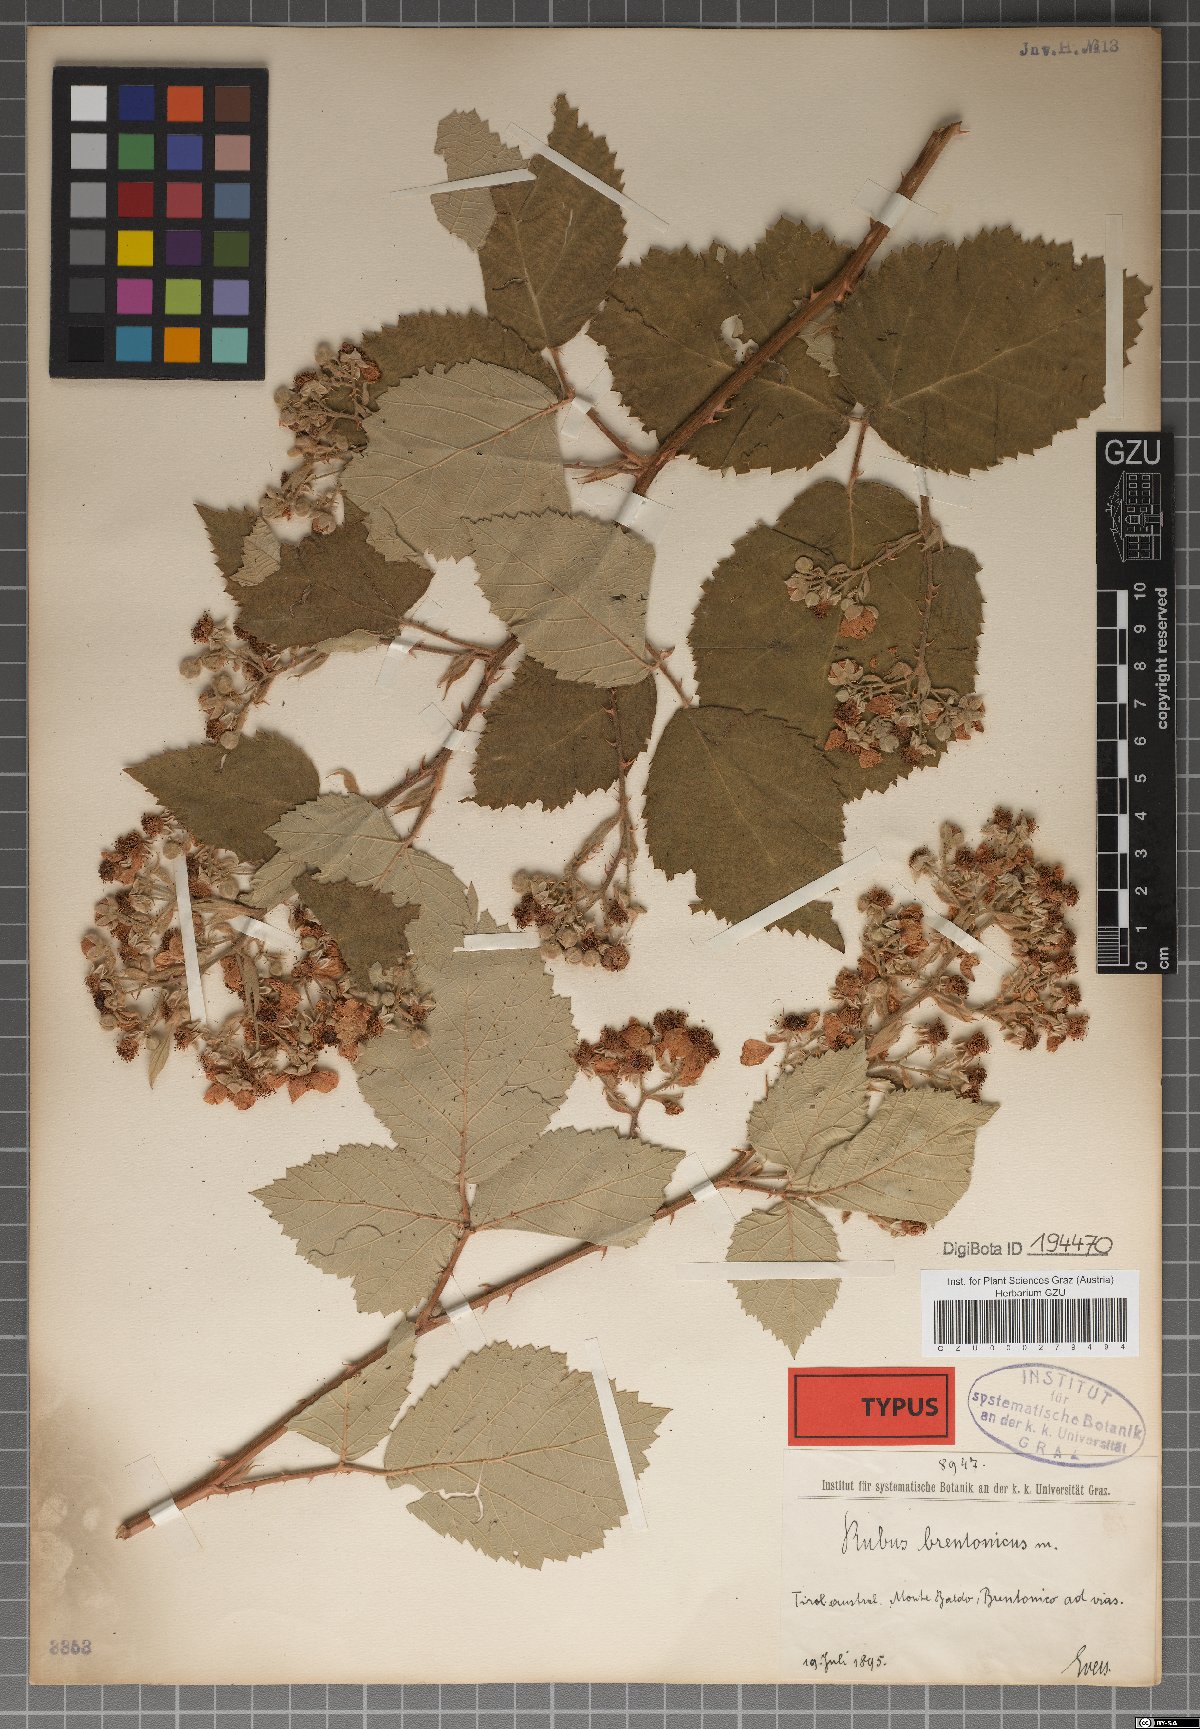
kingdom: Plantae
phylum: Tracheophyta
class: Magnoliopsida
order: Rosales
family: Rosaceae
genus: Rubus
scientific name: Rubus brentonicus
